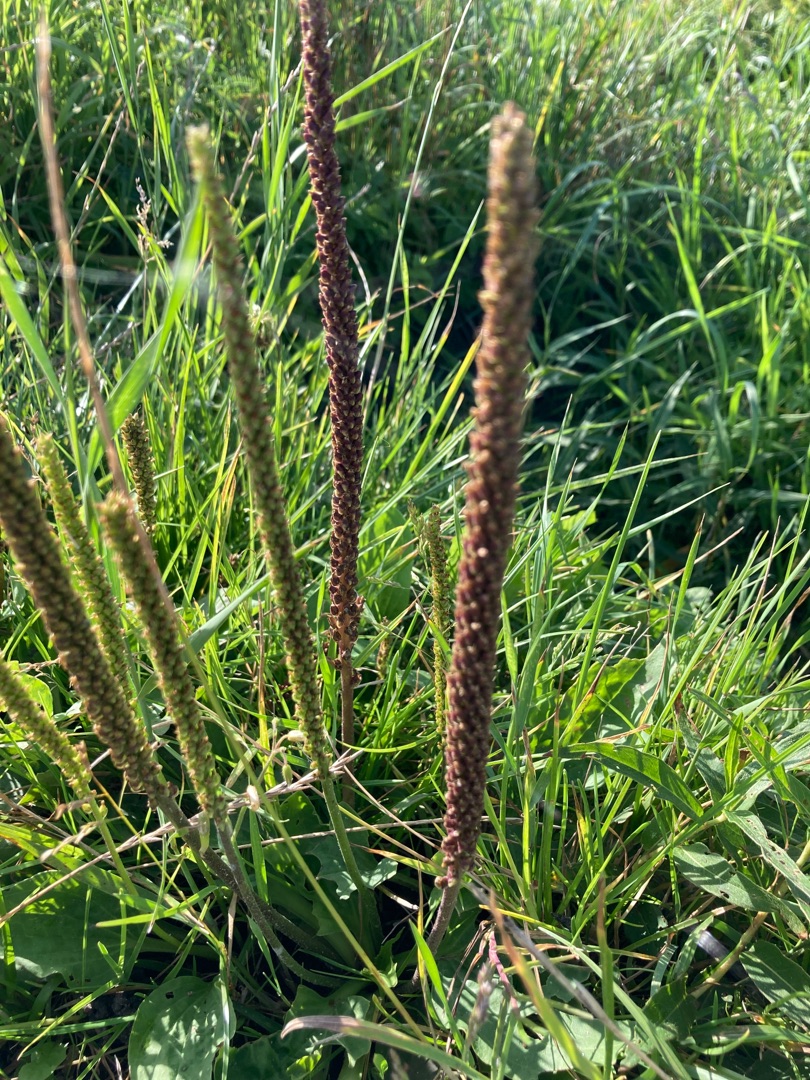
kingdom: Plantae
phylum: Tracheophyta
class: Magnoliopsida
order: Lamiales
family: Plantaginaceae
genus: Plantago
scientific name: Plantago major
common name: Glat vejbred
